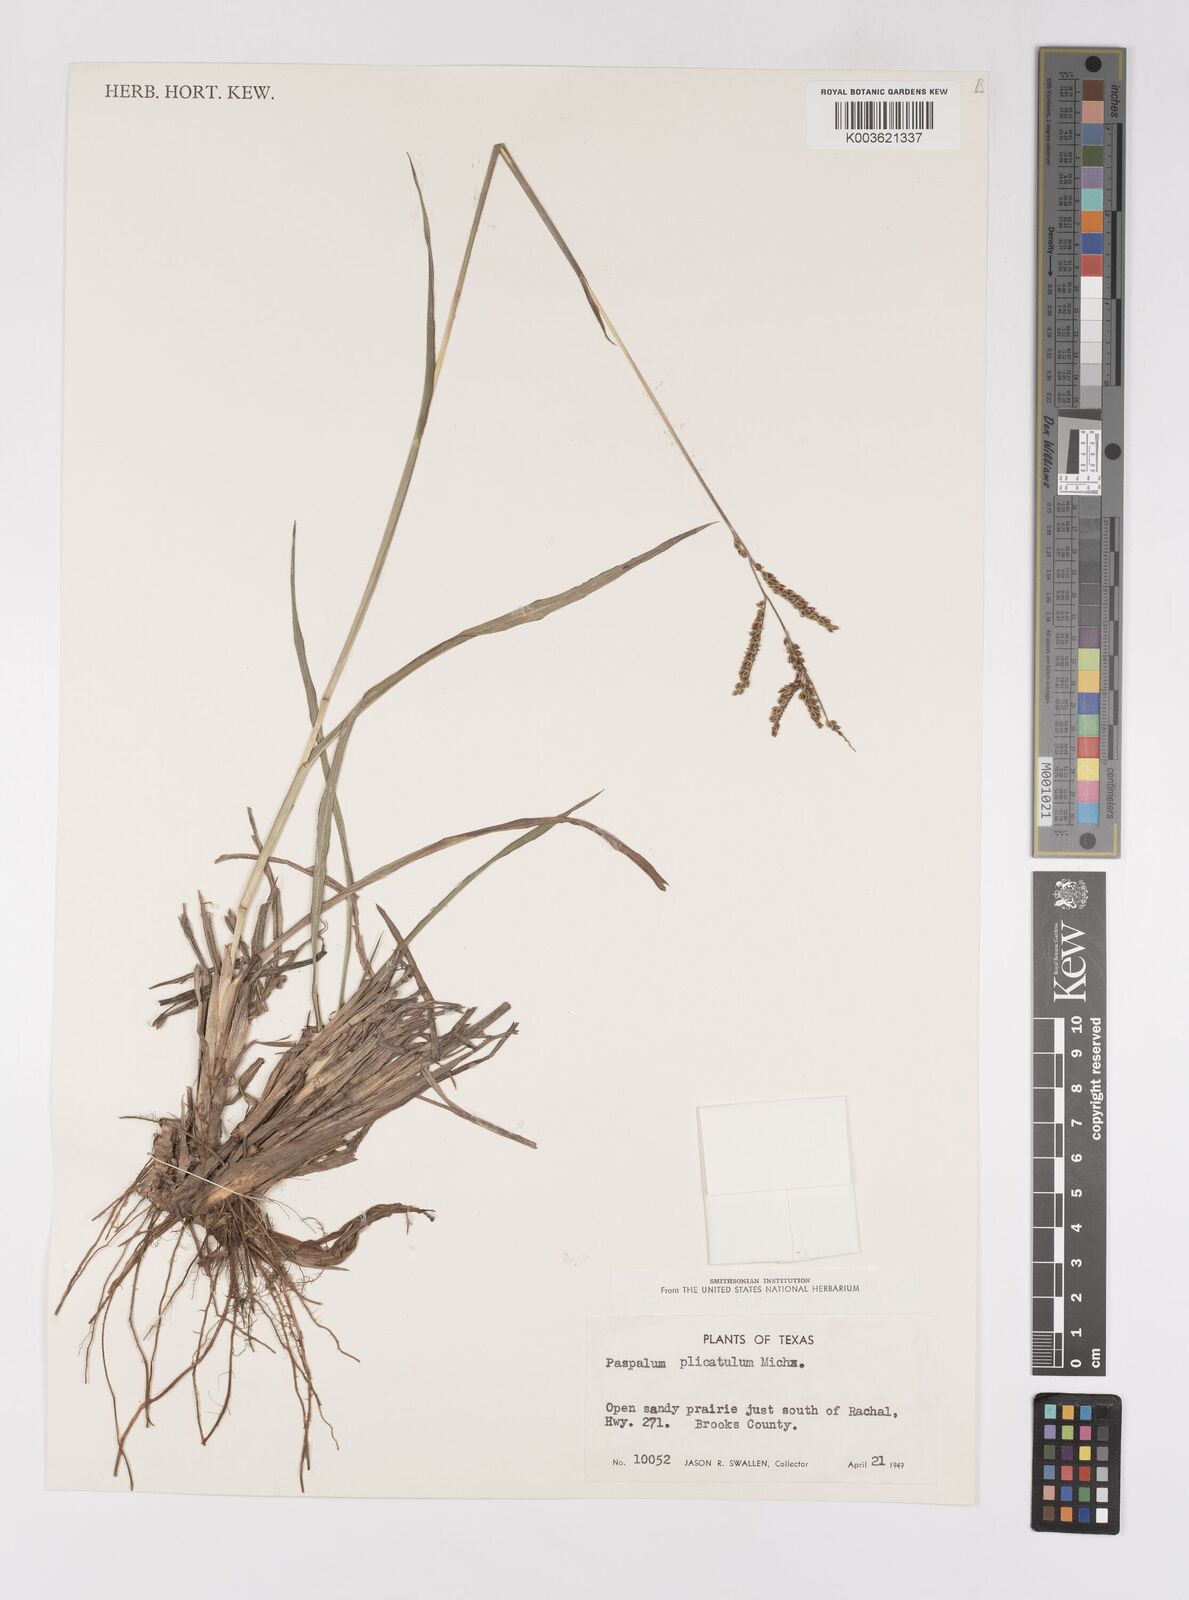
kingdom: Plantae
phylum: Tracheophyta
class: Liliopsida
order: Poales
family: Poaceae
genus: Paspalum
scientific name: Paspalum plicatulum
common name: Top paspalum
